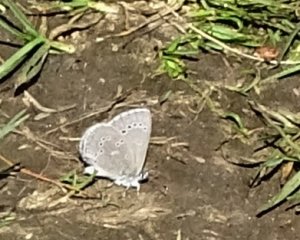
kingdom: Animalia
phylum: Arthropoda
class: Insecta
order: Lepidoptera
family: Lycaenidae
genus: Glaucopsyche
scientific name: Glaucopsyche lygdamus
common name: Silvery Blue
